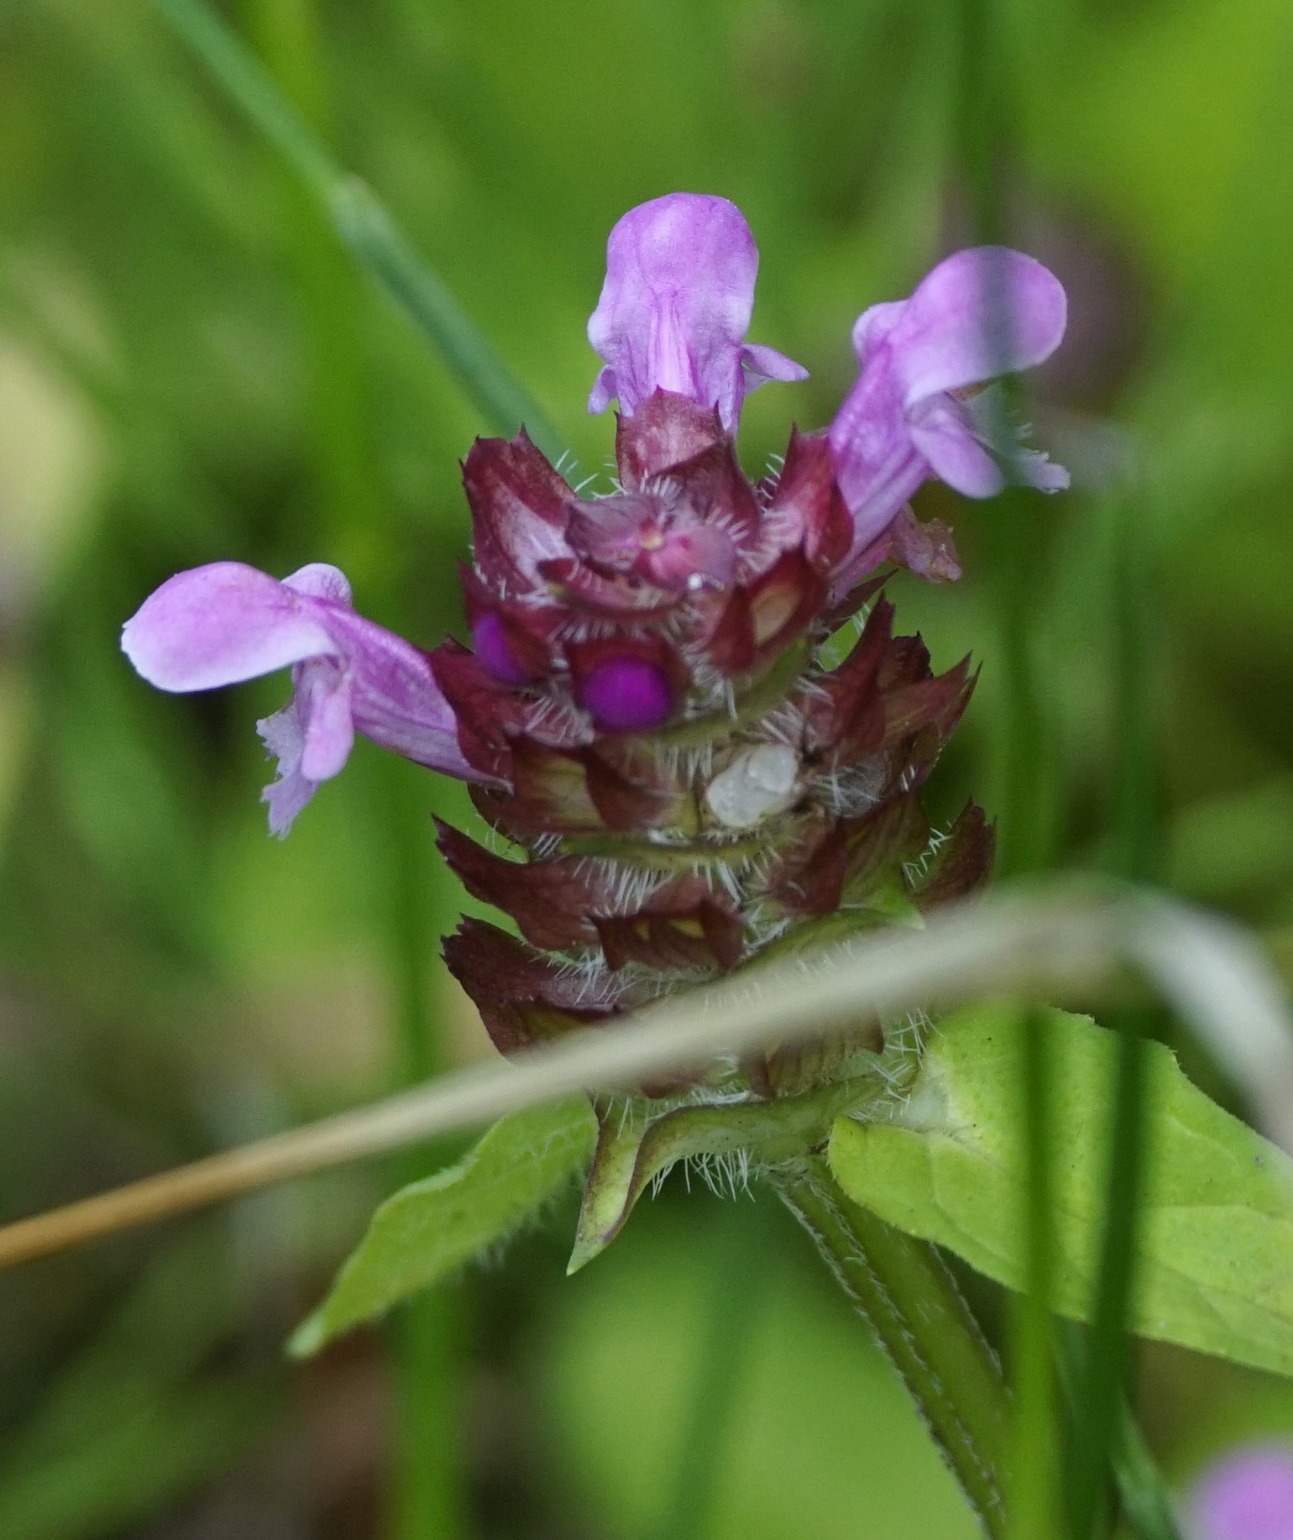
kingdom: Plantae
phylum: Tracheophyta
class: Magnoliopsida
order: Lamiales
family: Lamiaceae
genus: Prunella
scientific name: Prunella vulgaris
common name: Almindelig brunelle
